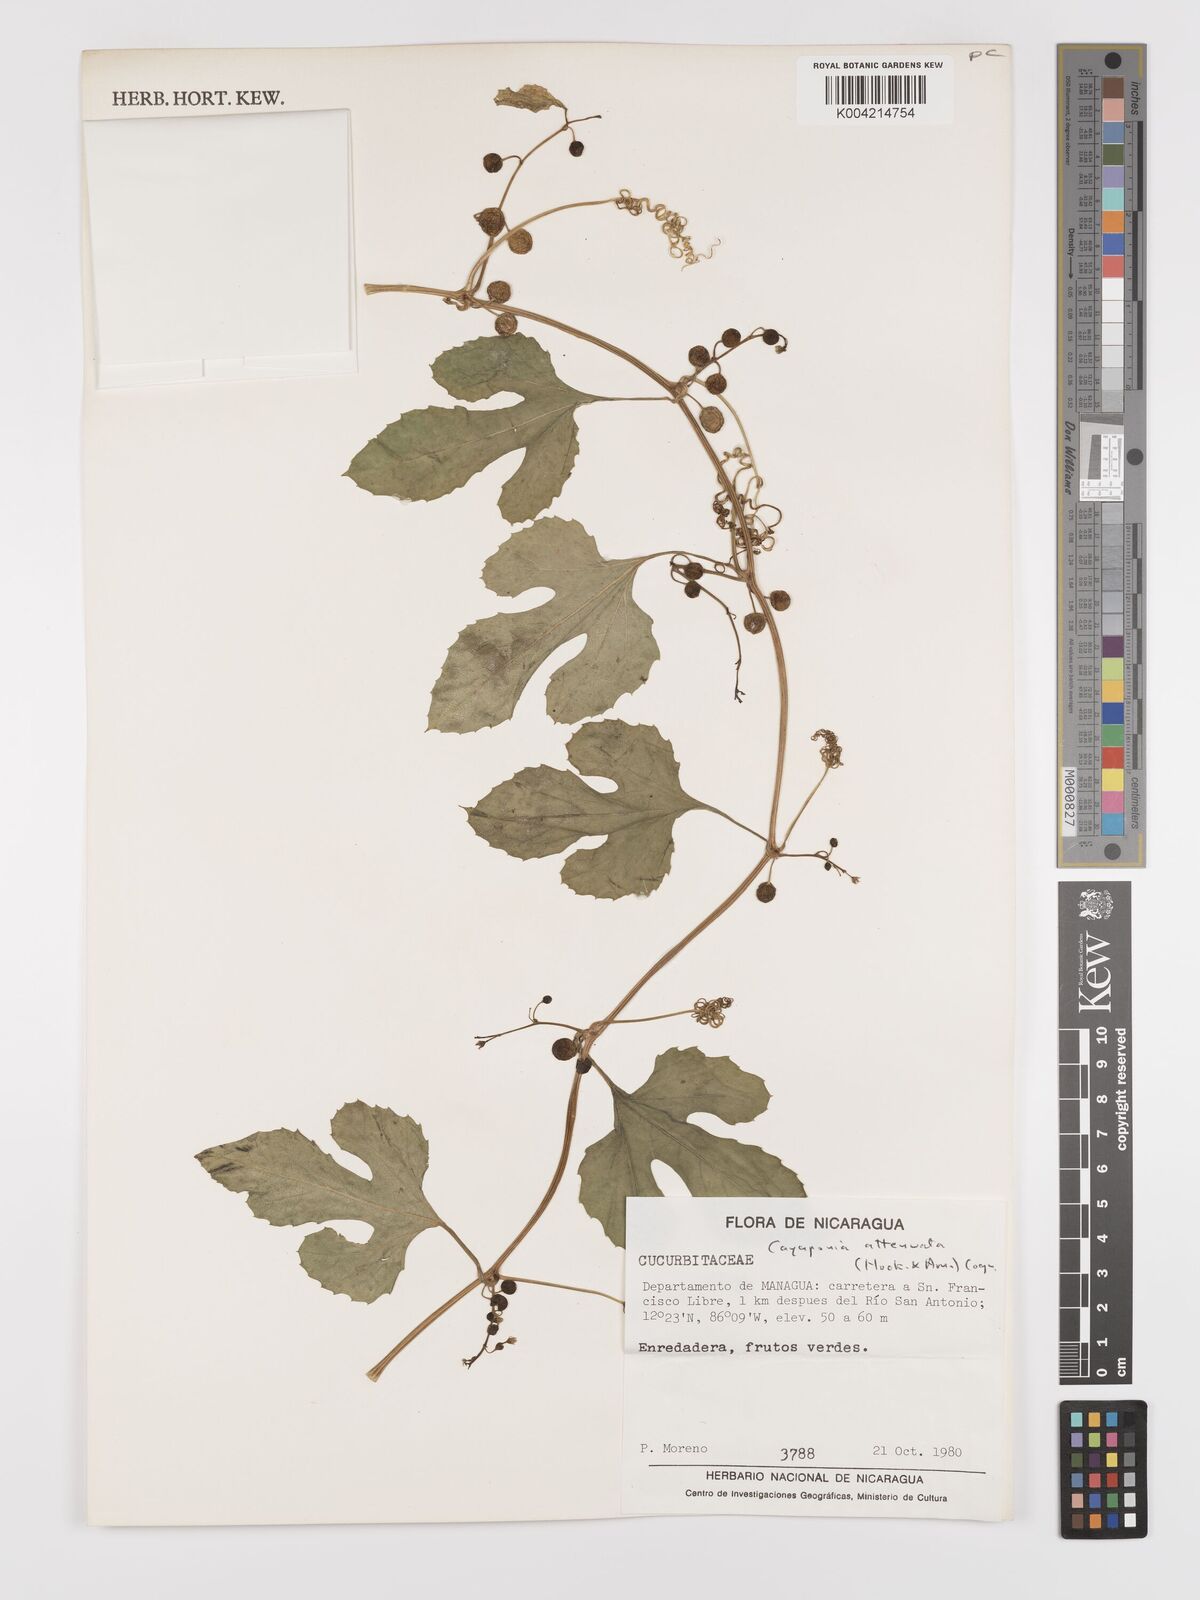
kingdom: Plantae
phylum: Tracheophyta
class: Magnoliopsida
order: Cucurbitales
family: Cucurbitaceae
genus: Cayaponia
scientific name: Cayaponia attenuata
